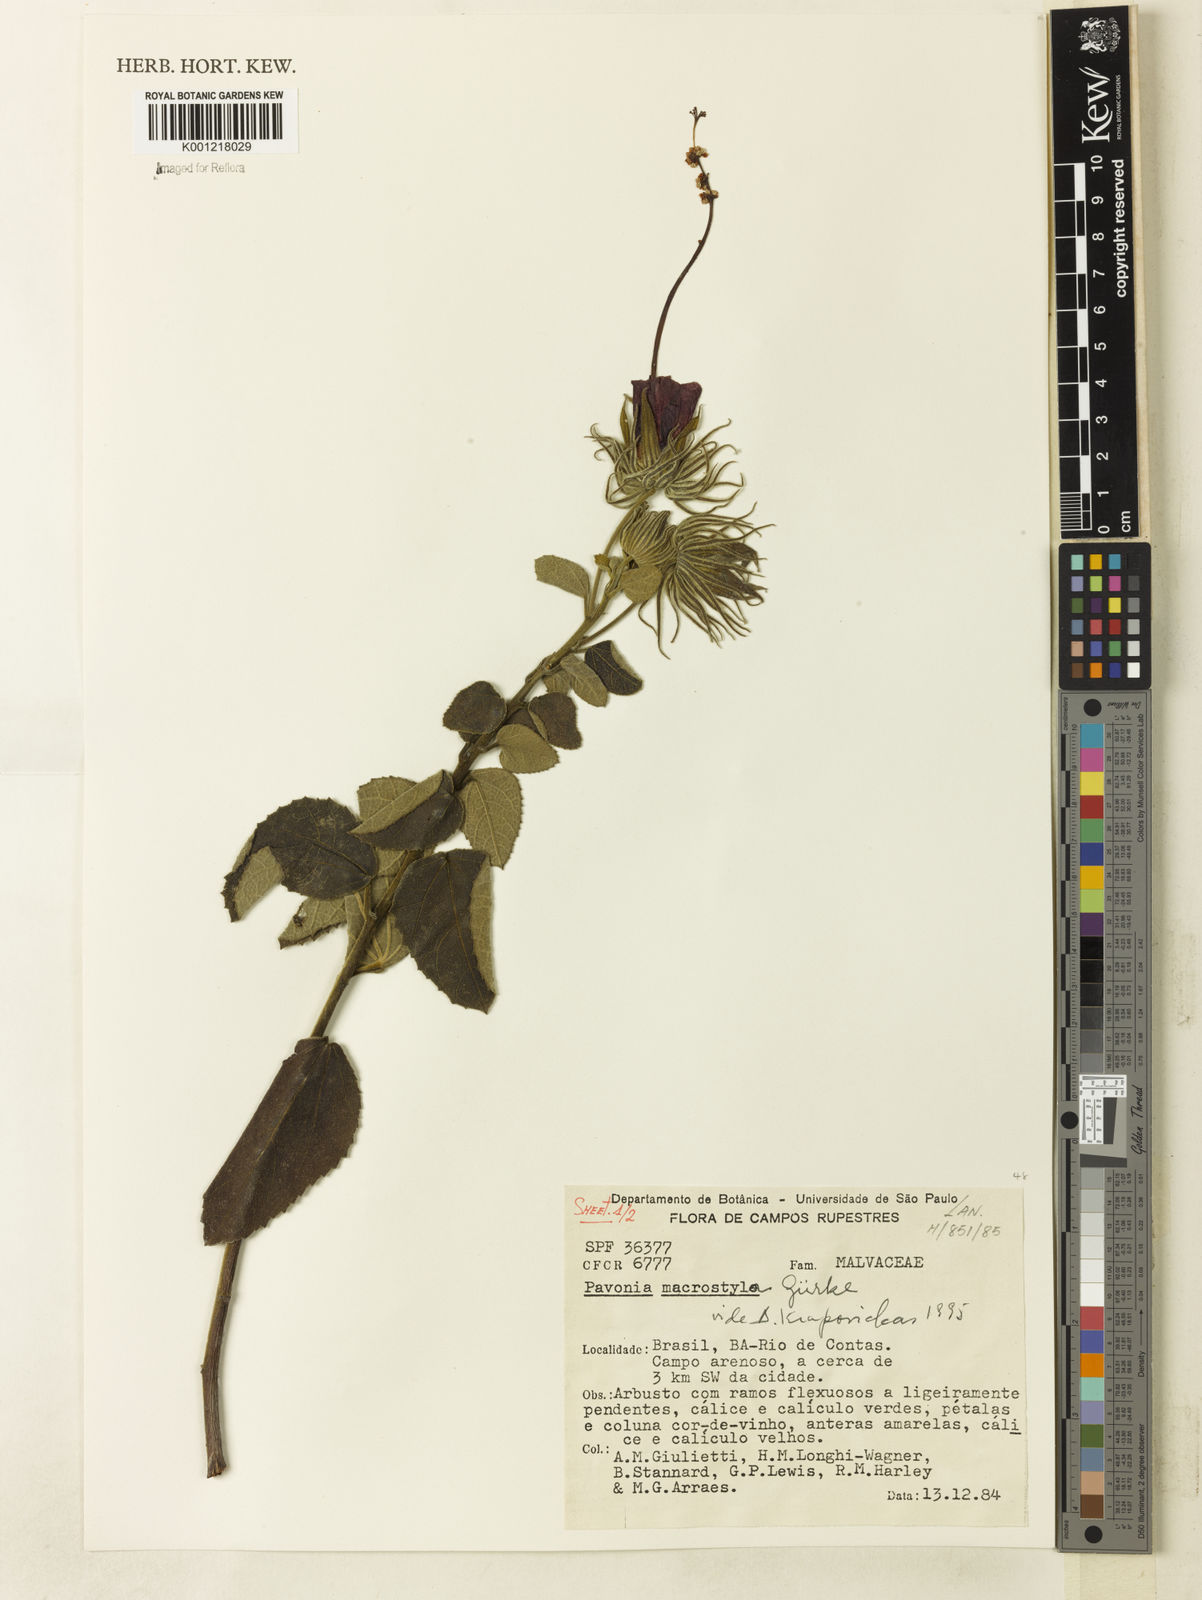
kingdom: Plantae
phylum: Tracheophyta
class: Magnoliopsida
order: Malvales
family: Malvaceae
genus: Pavonia
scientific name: Pavonia
